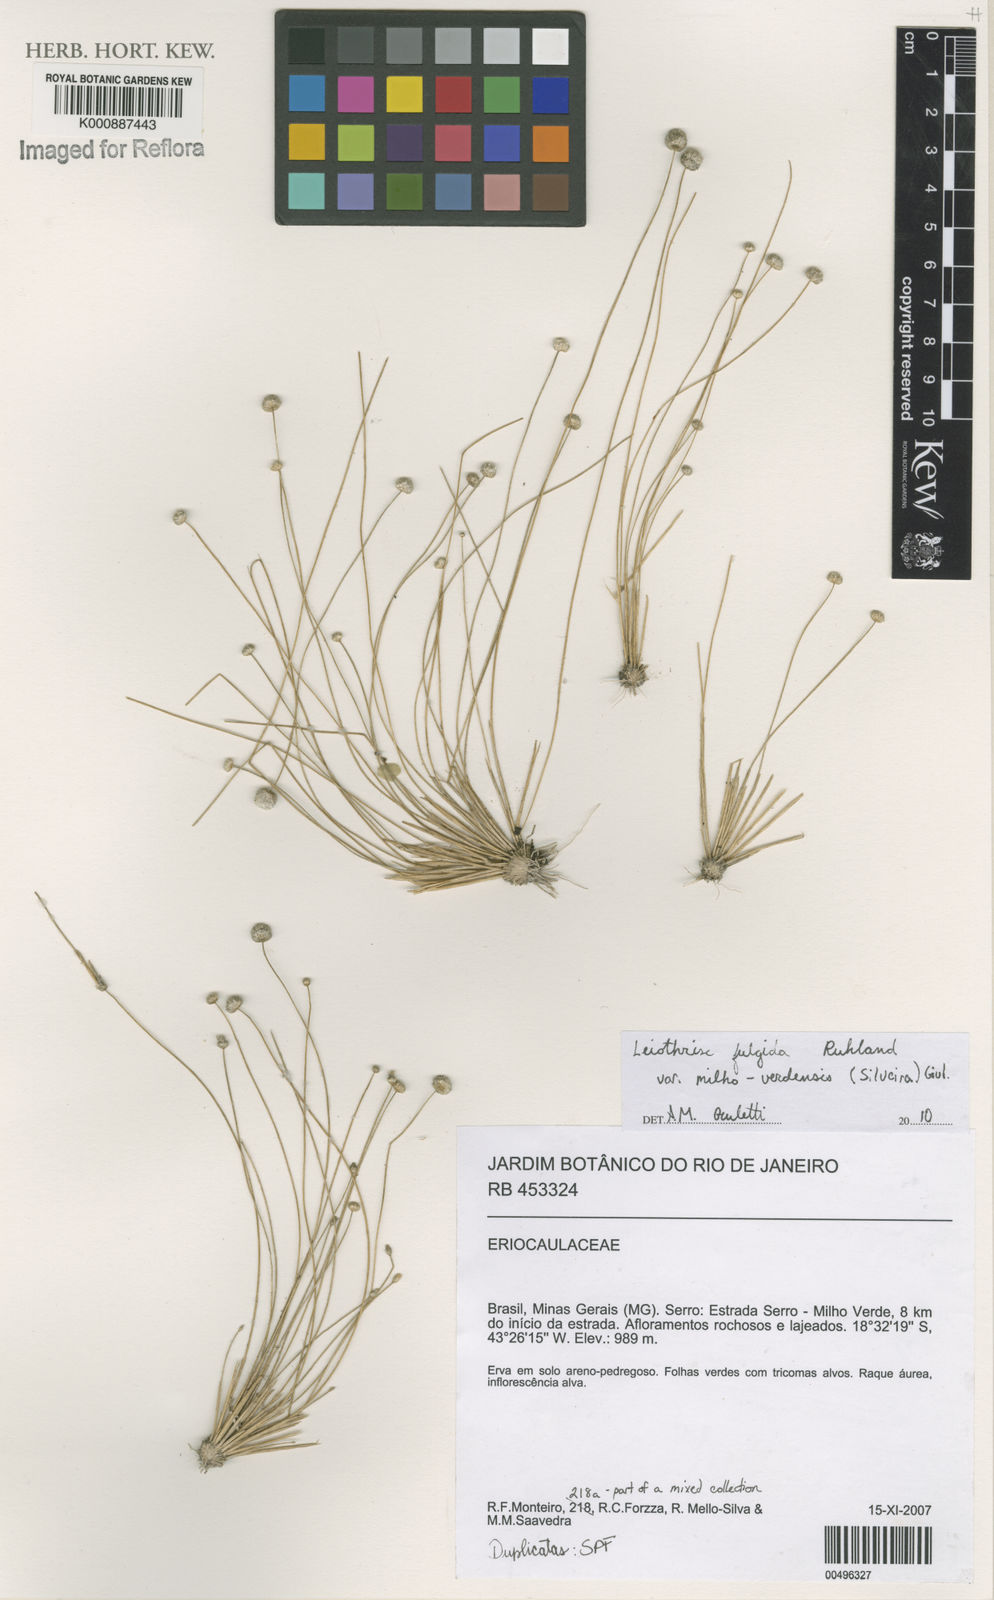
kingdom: Plantae
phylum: Tracheophyta
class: Liliopsida
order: Poales
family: Eriocaulaceae
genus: Leiothrix
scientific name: Leiothrix
